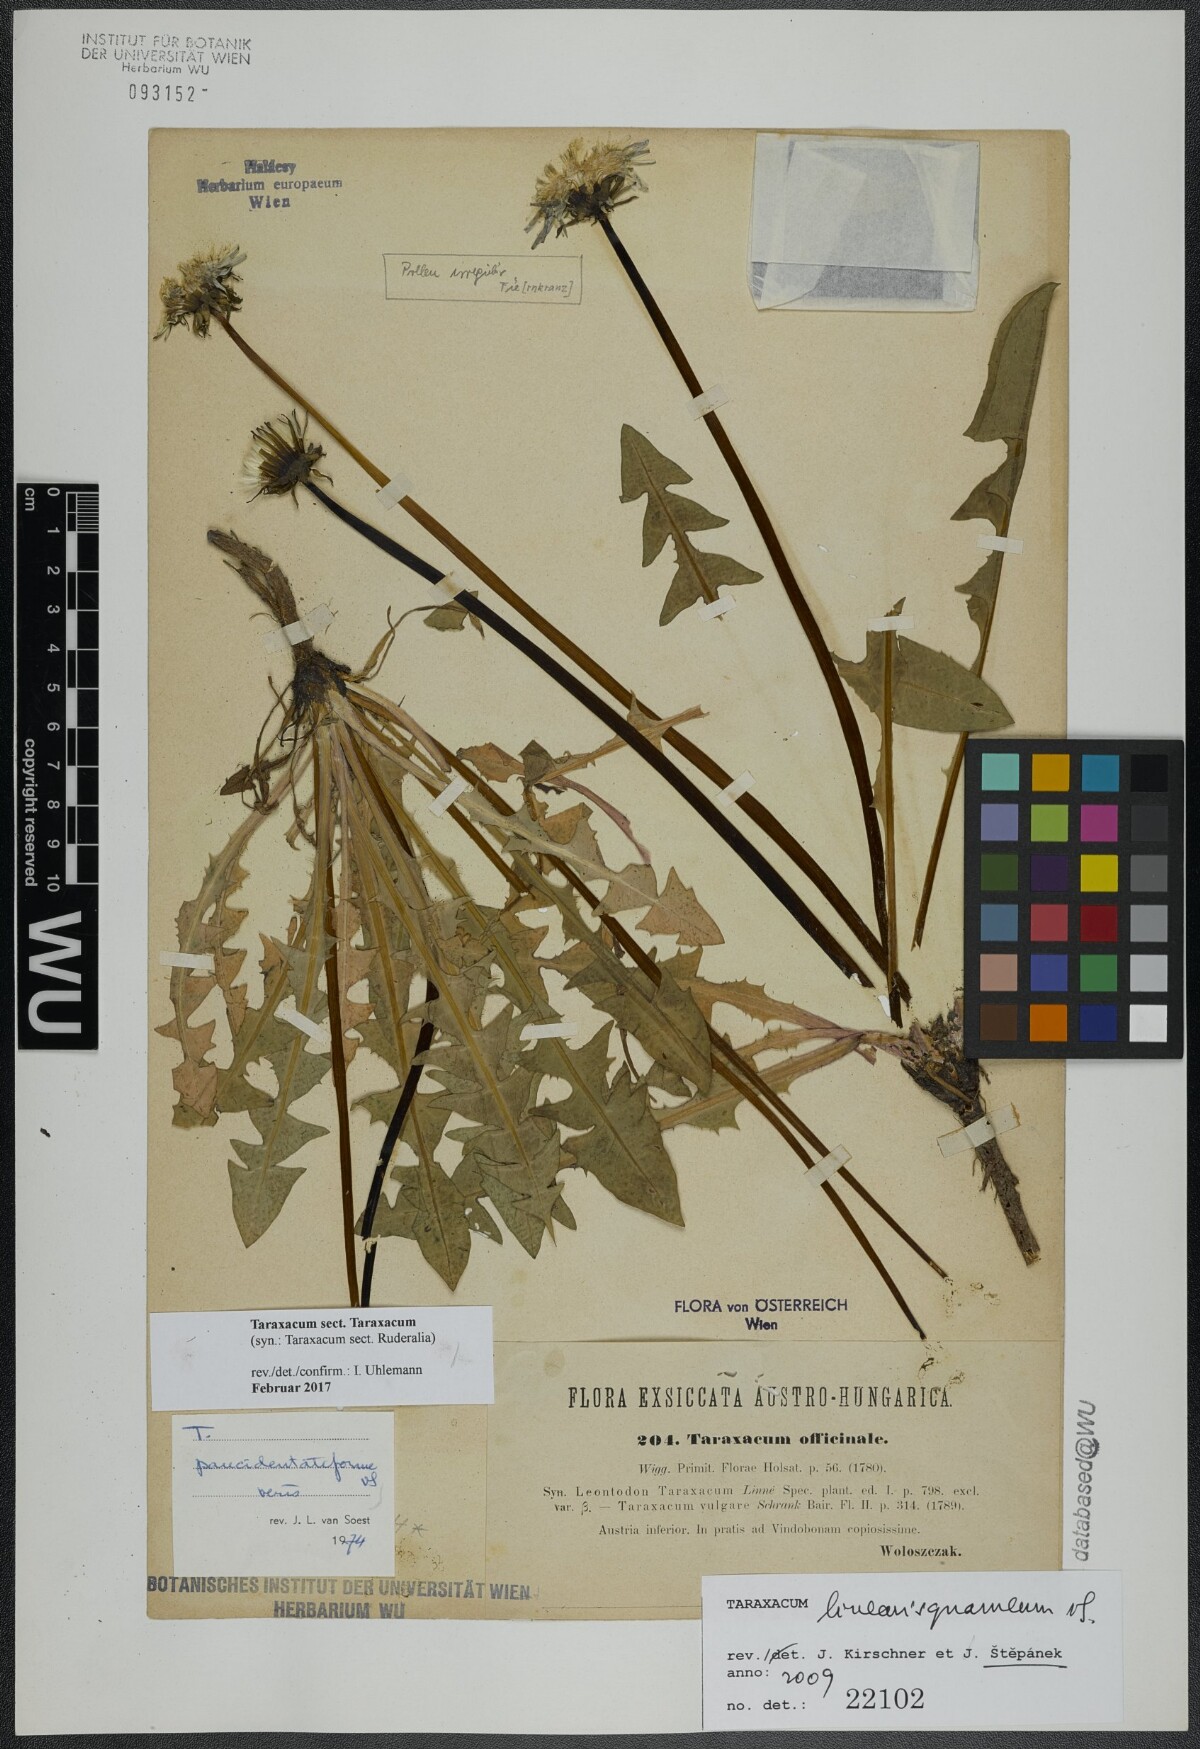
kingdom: Plantae
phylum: Tracheophyta
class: Magnoliopsida
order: Asterales
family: Asteraceae
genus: Taraxacum
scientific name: Taraxacum
